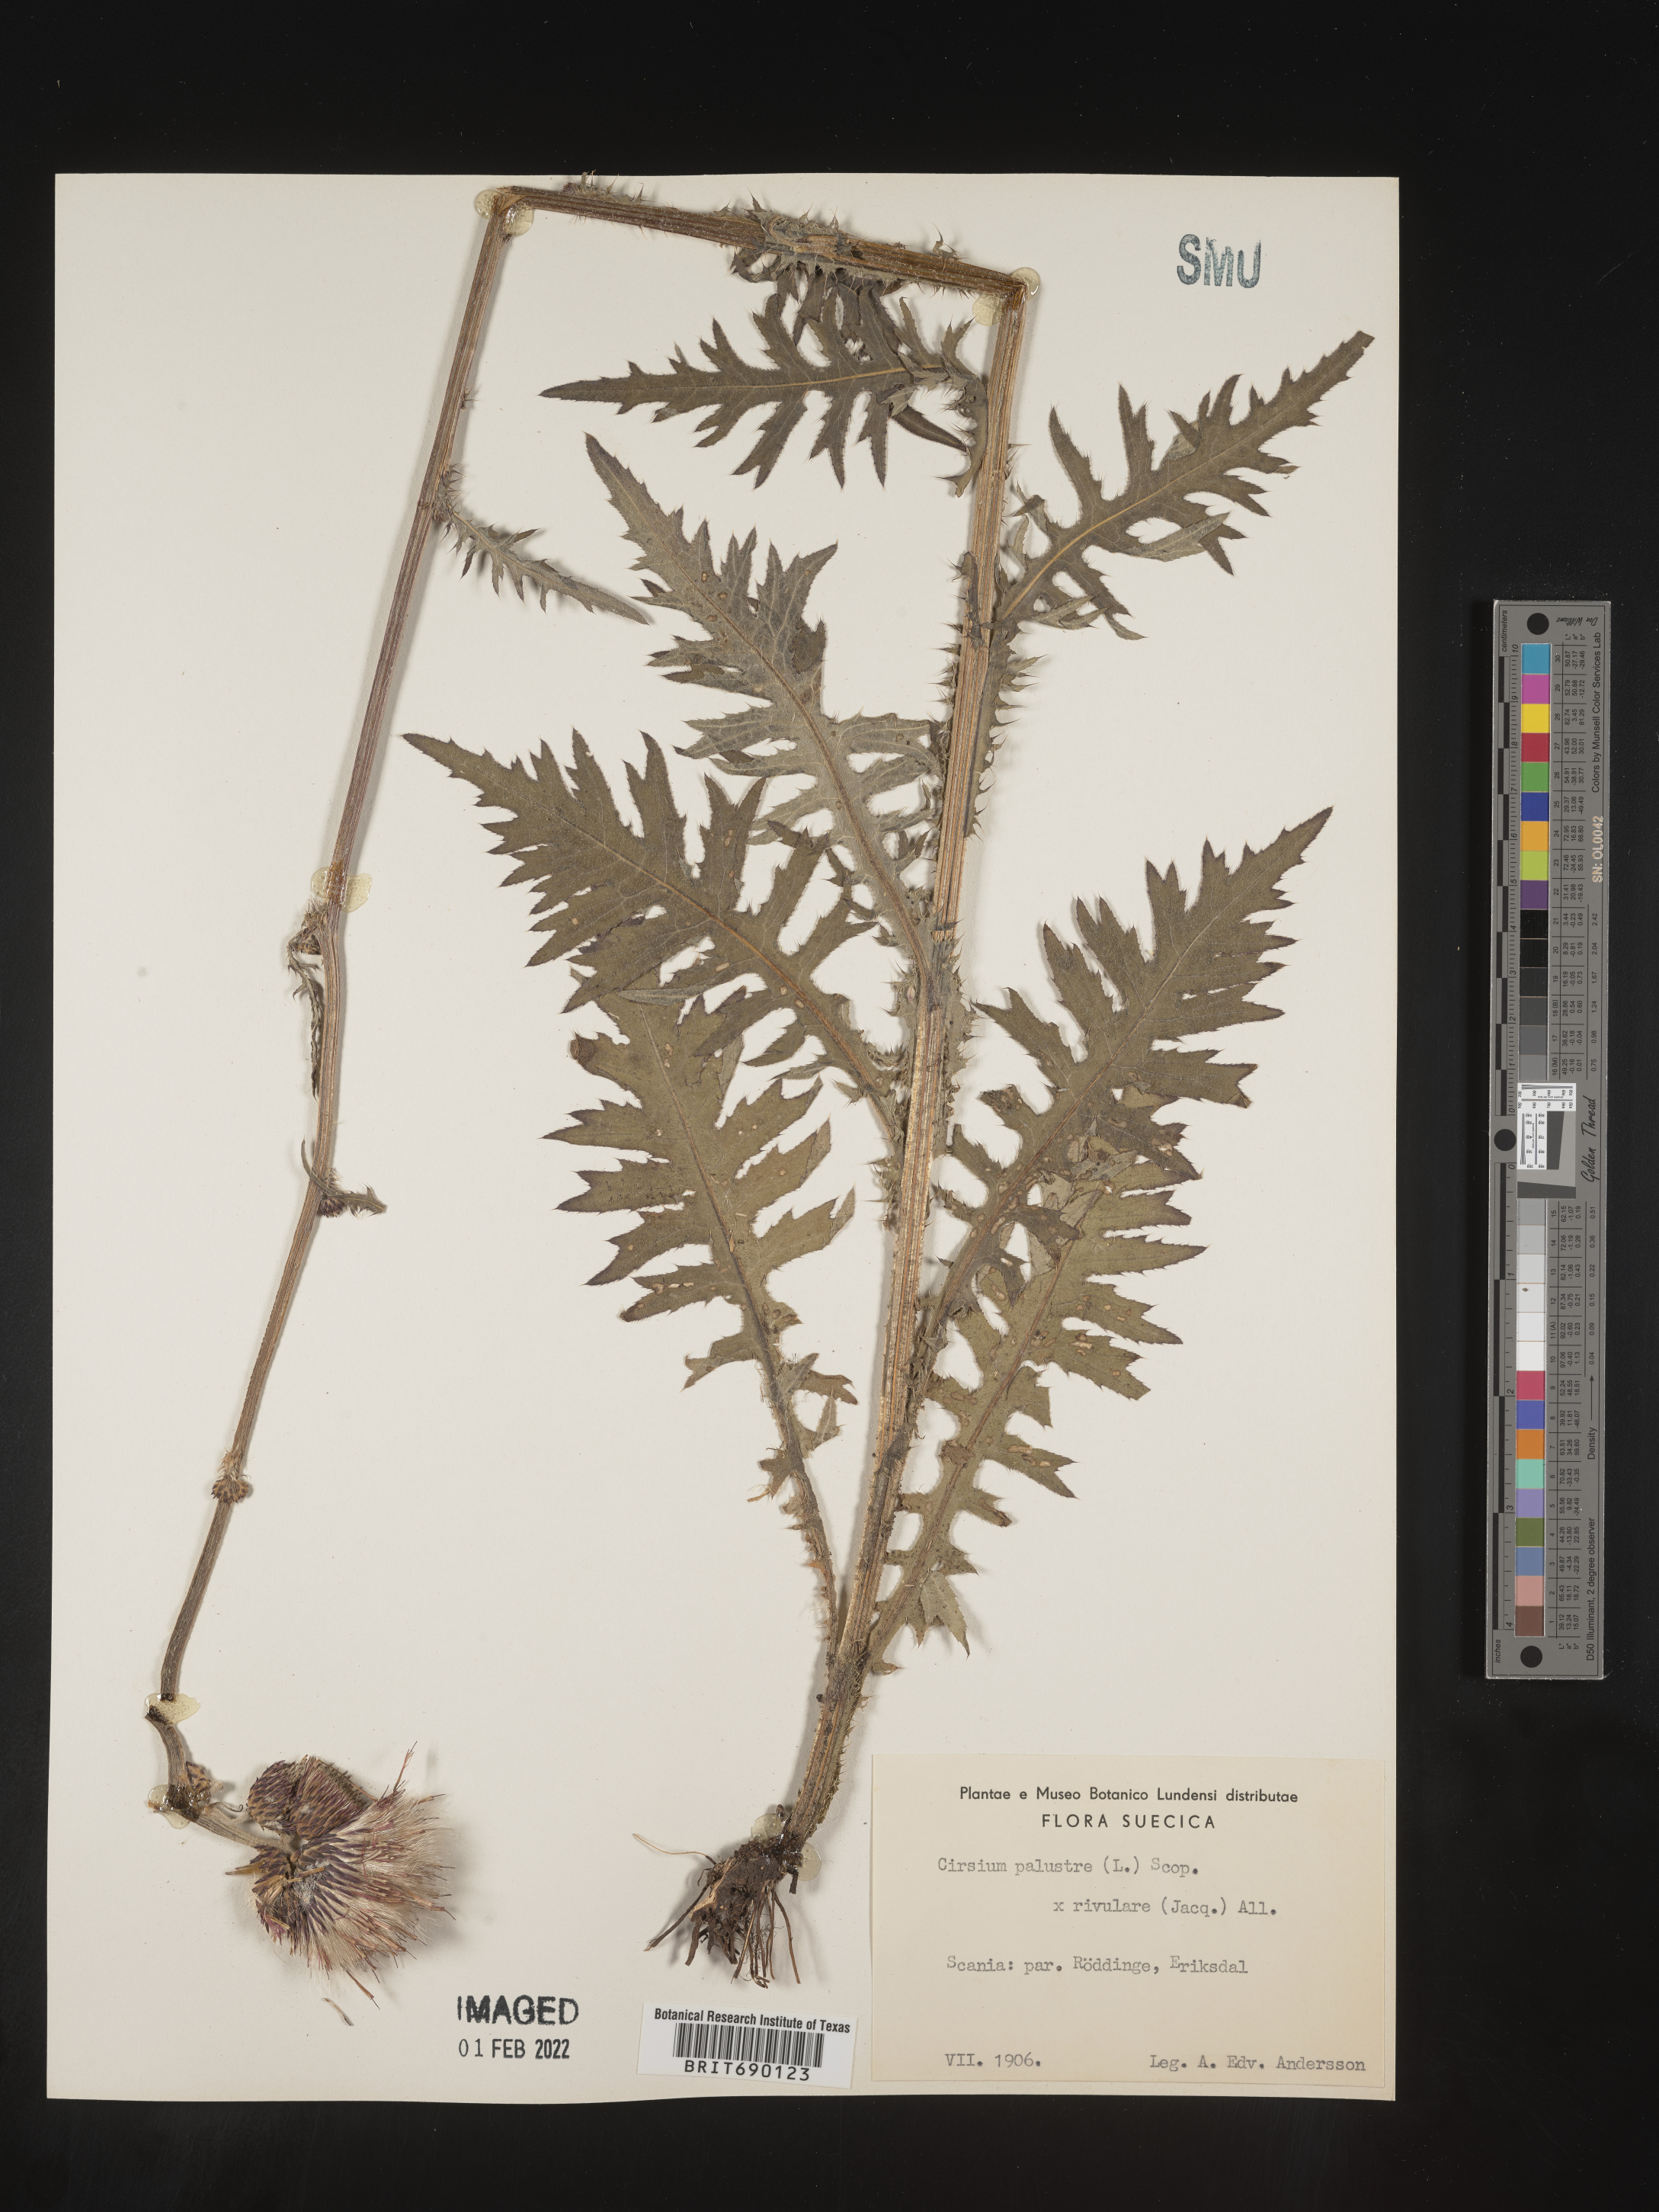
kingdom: Plantae
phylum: Tracheophyta
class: Magnoliopsida
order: Asterales
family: Asteraceae
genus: Cirsium
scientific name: Cirsium
